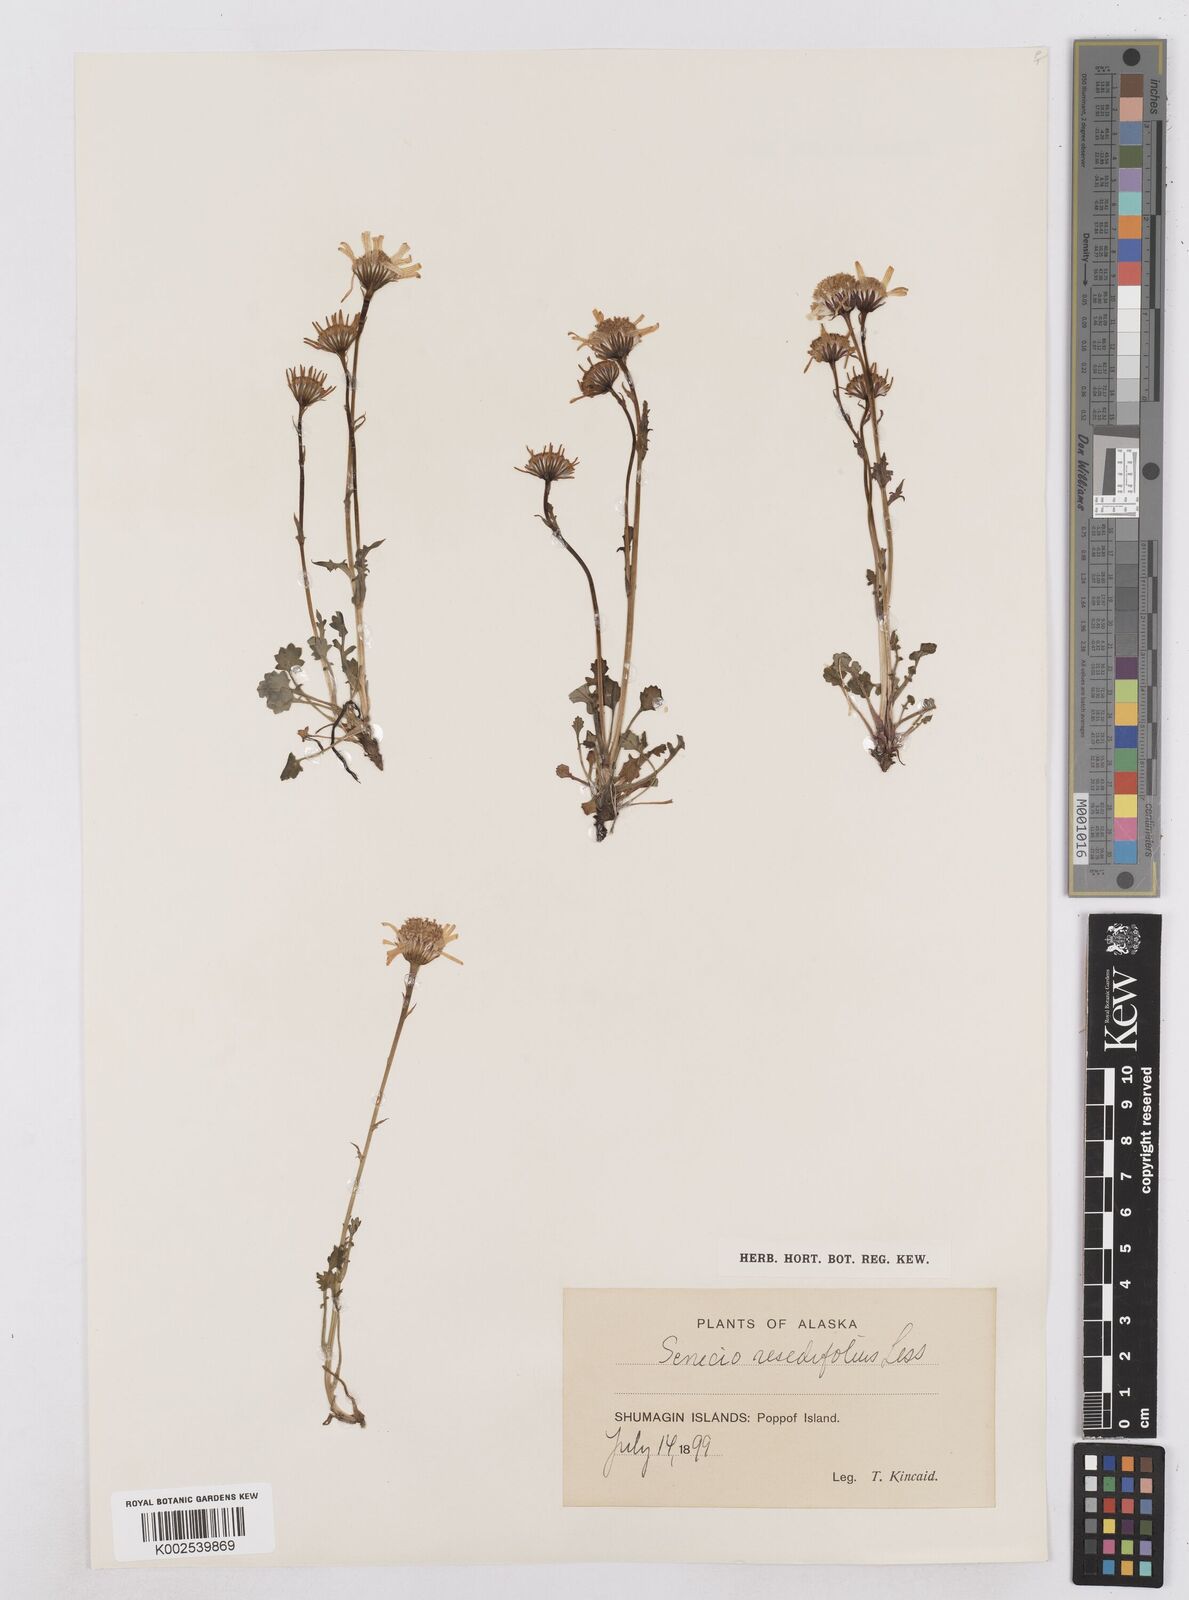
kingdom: Plantae
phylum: Tracheophyta
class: Magnoliopsida
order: Asterales
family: Asteraceae
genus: Packera
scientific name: Packera cymbalaria
